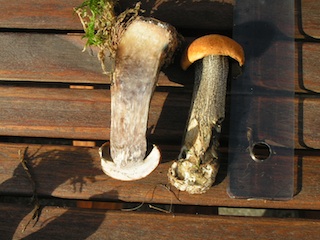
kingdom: Fungi
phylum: Basidiomycota
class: Agaricomycetes
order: Boletales
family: Boletaceae
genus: Leccinum
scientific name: Leccinum versipelle
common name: orange skælrørhat
